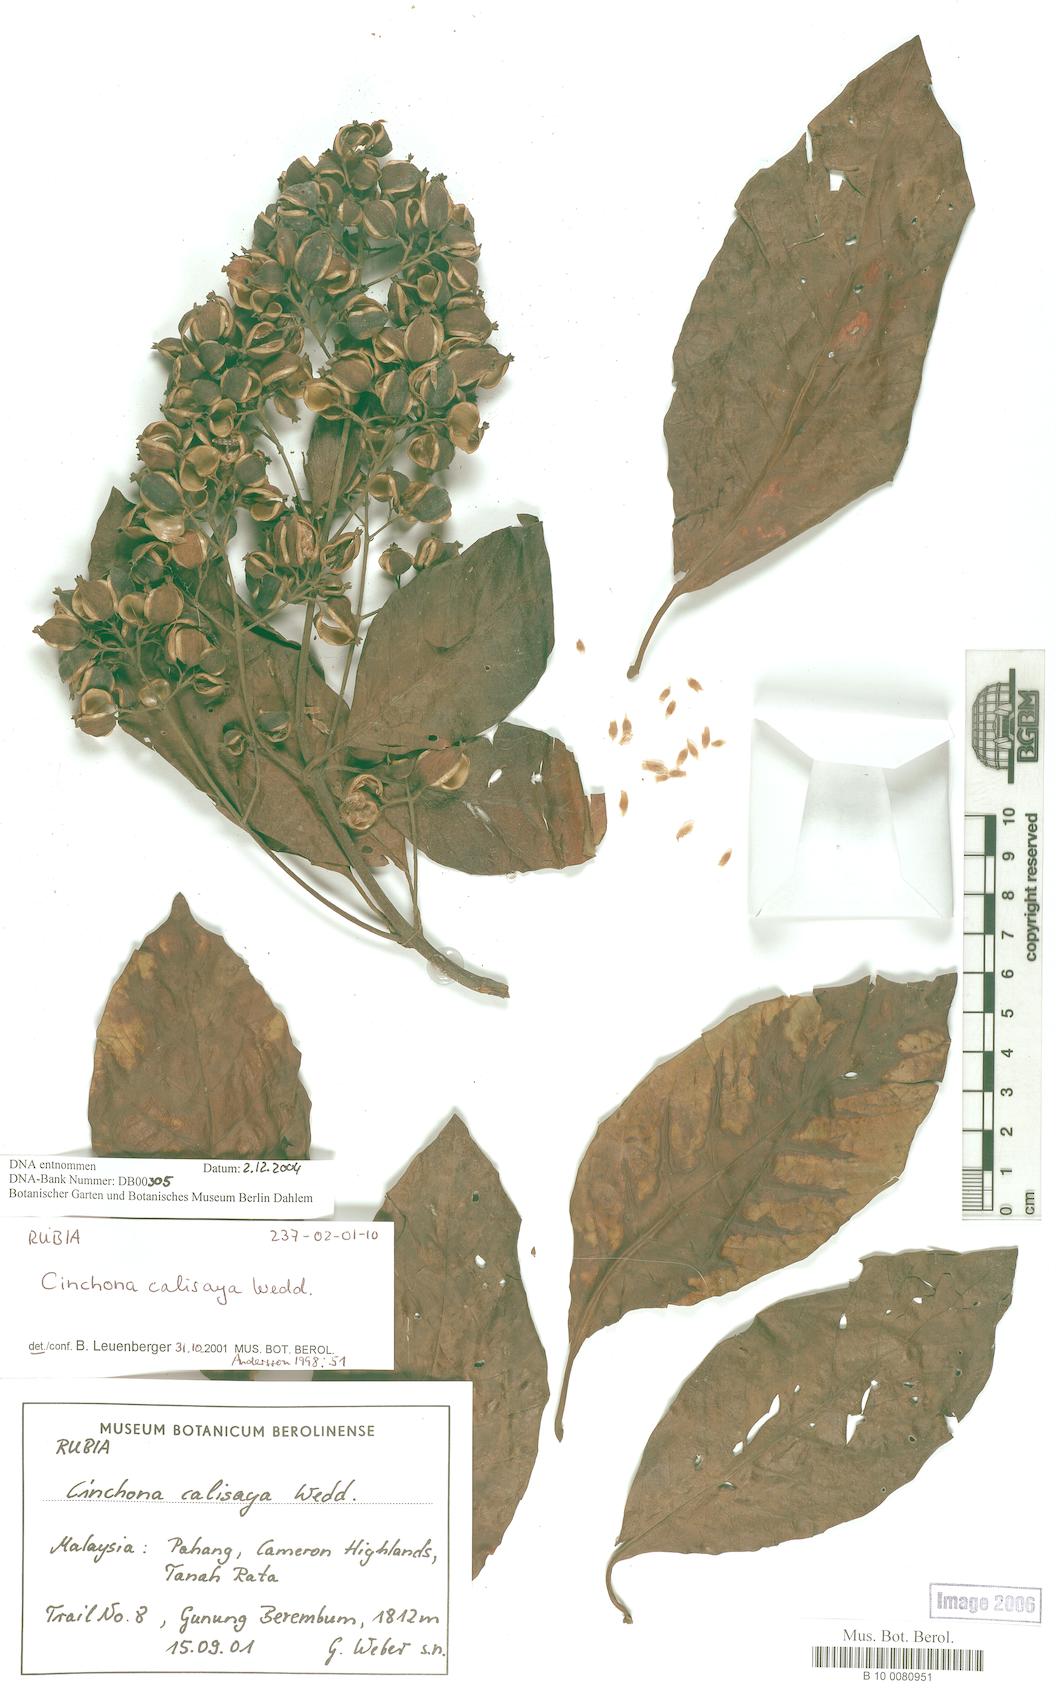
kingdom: Plantae
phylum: Tracheophyta
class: Magnoliopsida
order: Gentianales
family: Rubiaceae
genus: Cinchona
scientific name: Cinchona calisaya
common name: Ledgerbark
